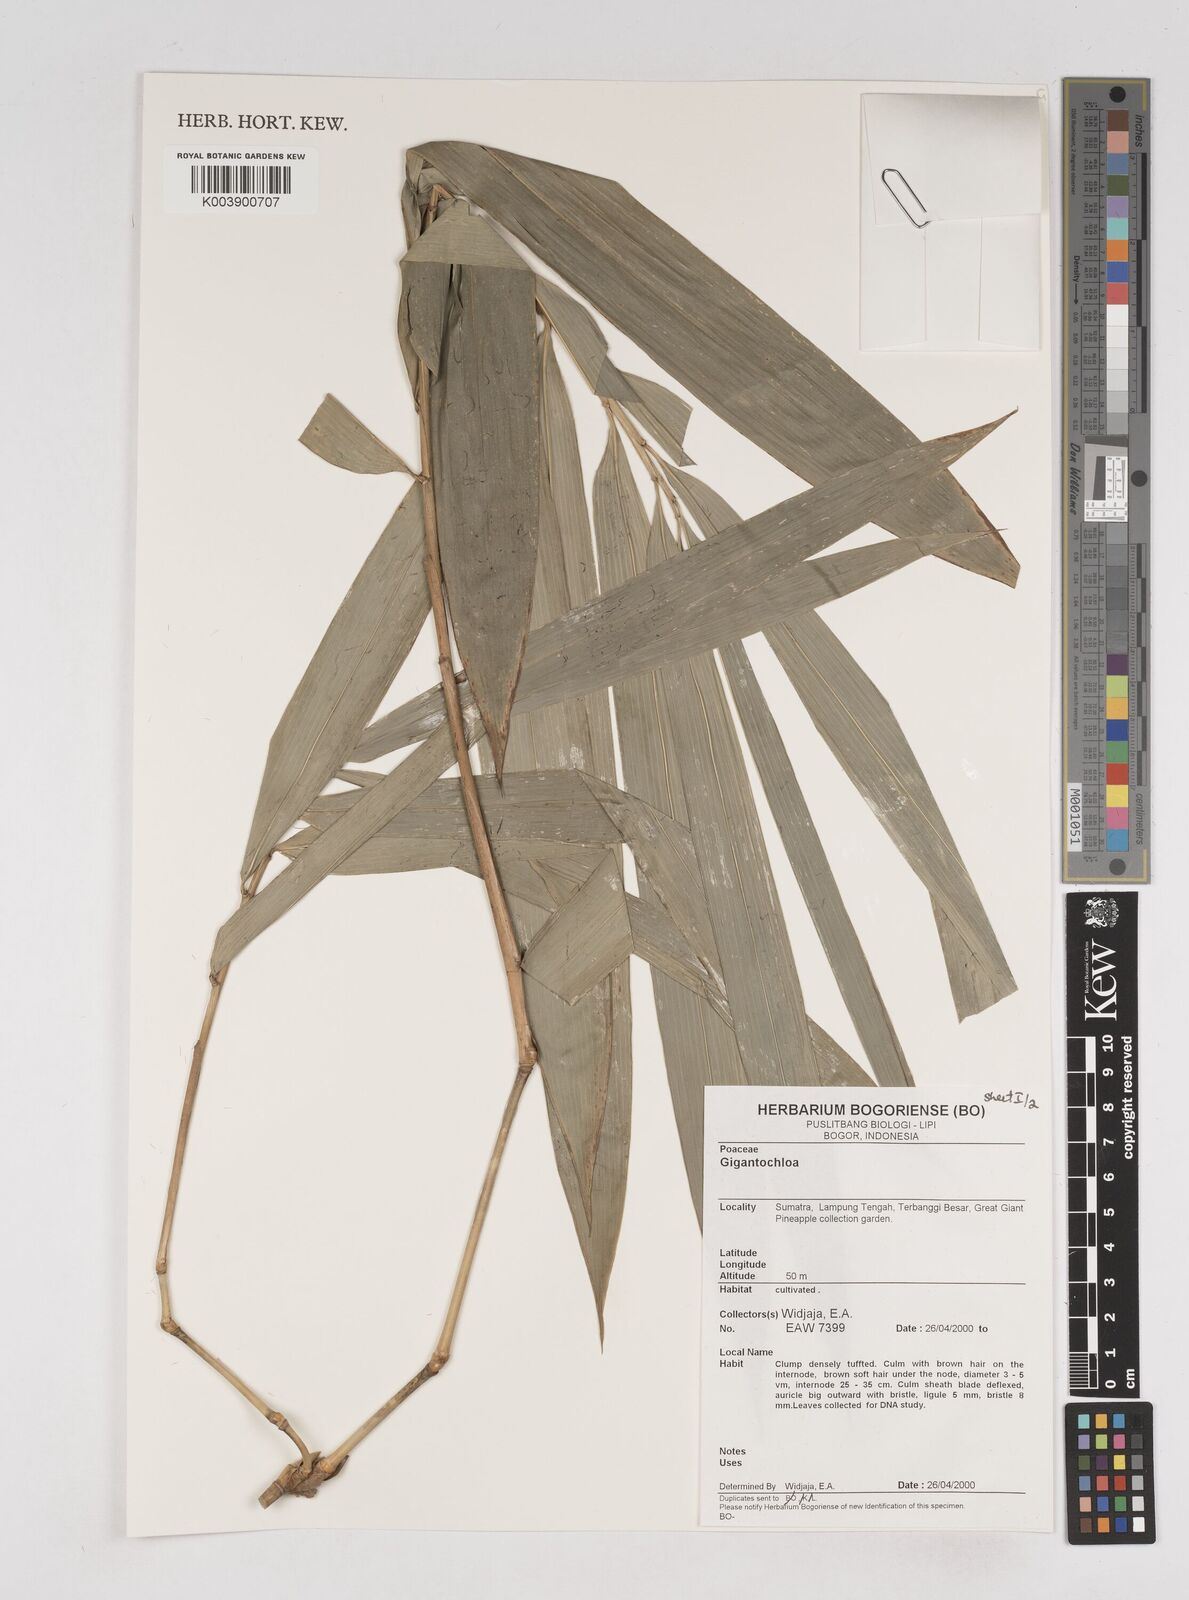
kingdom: Plantae
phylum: Tracheophyta
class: Liliopsida
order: Poales
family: Poaceae
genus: Gigantochloa
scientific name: Gigantochloa
